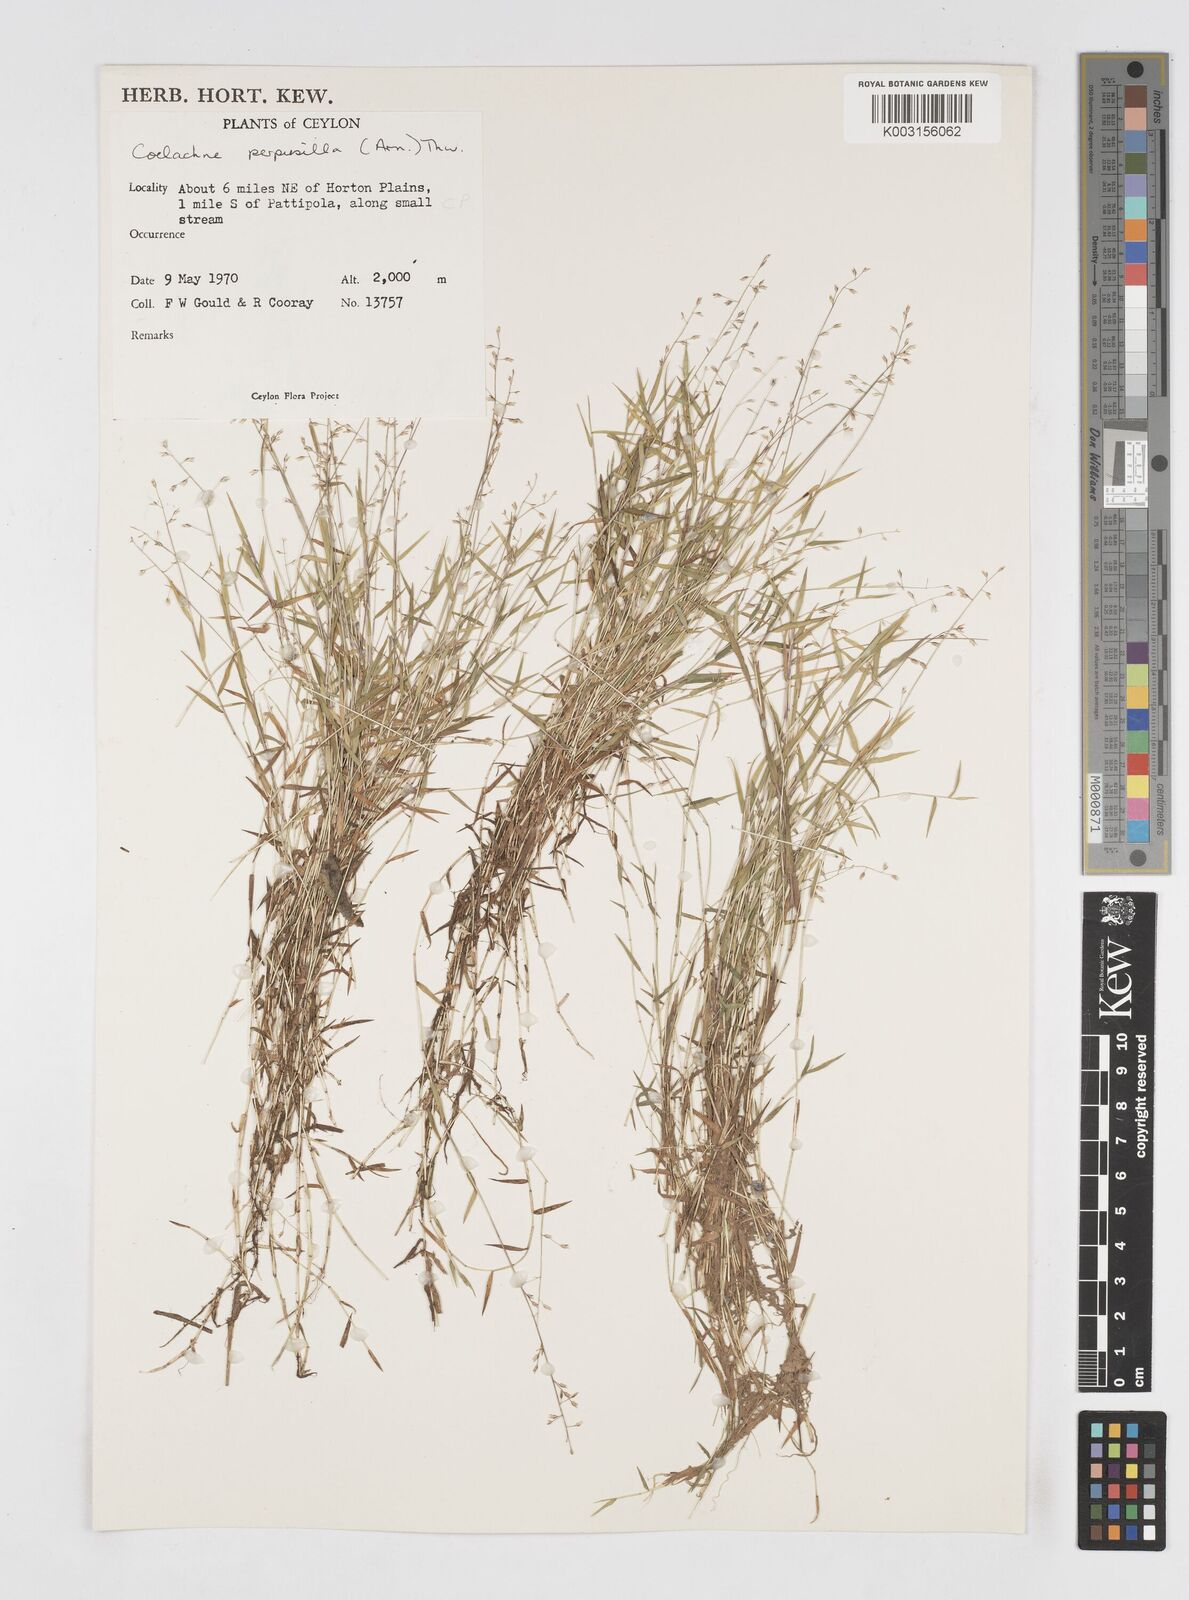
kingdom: Plantae
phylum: Tracheophyta
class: Liliopsida
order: Poales
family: Poaceae
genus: Coelachne
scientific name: Coelachne perpusilla
